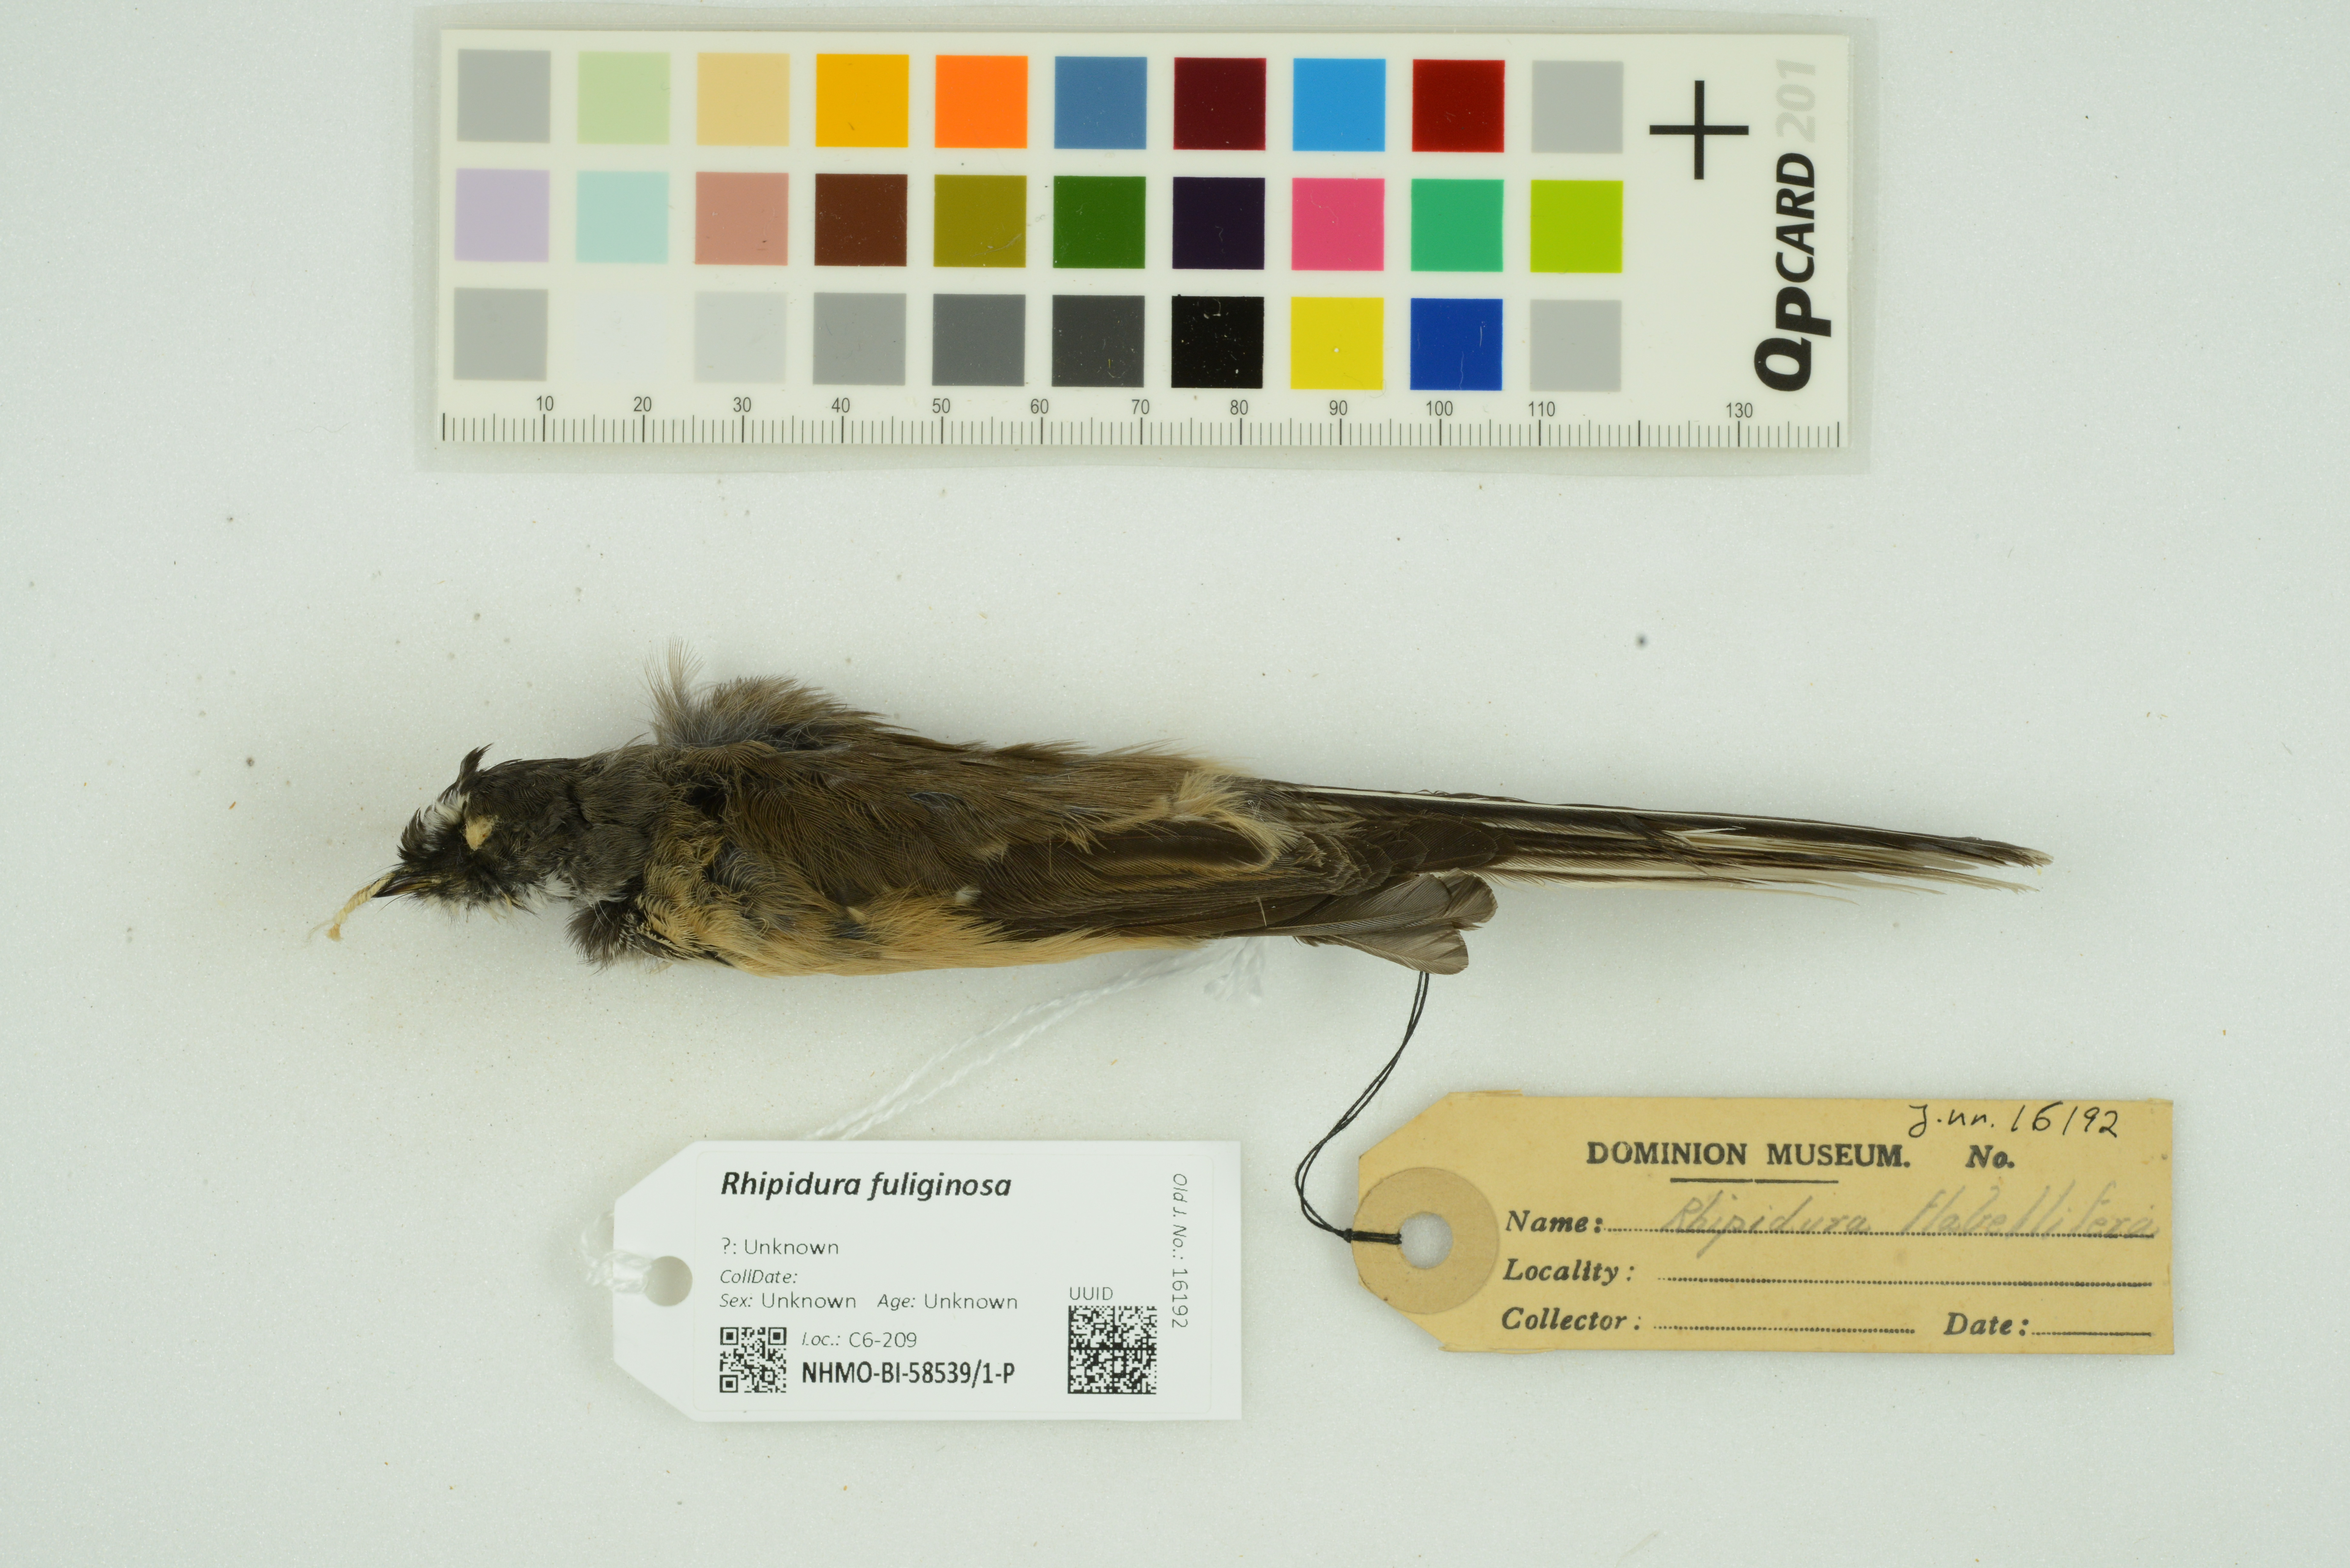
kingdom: Animalia
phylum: Chordata
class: Aves
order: Passeriformes
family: Rhipiduridae
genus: Rhipidura
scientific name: Rhipidura fuliginosa
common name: New zealand fantail
